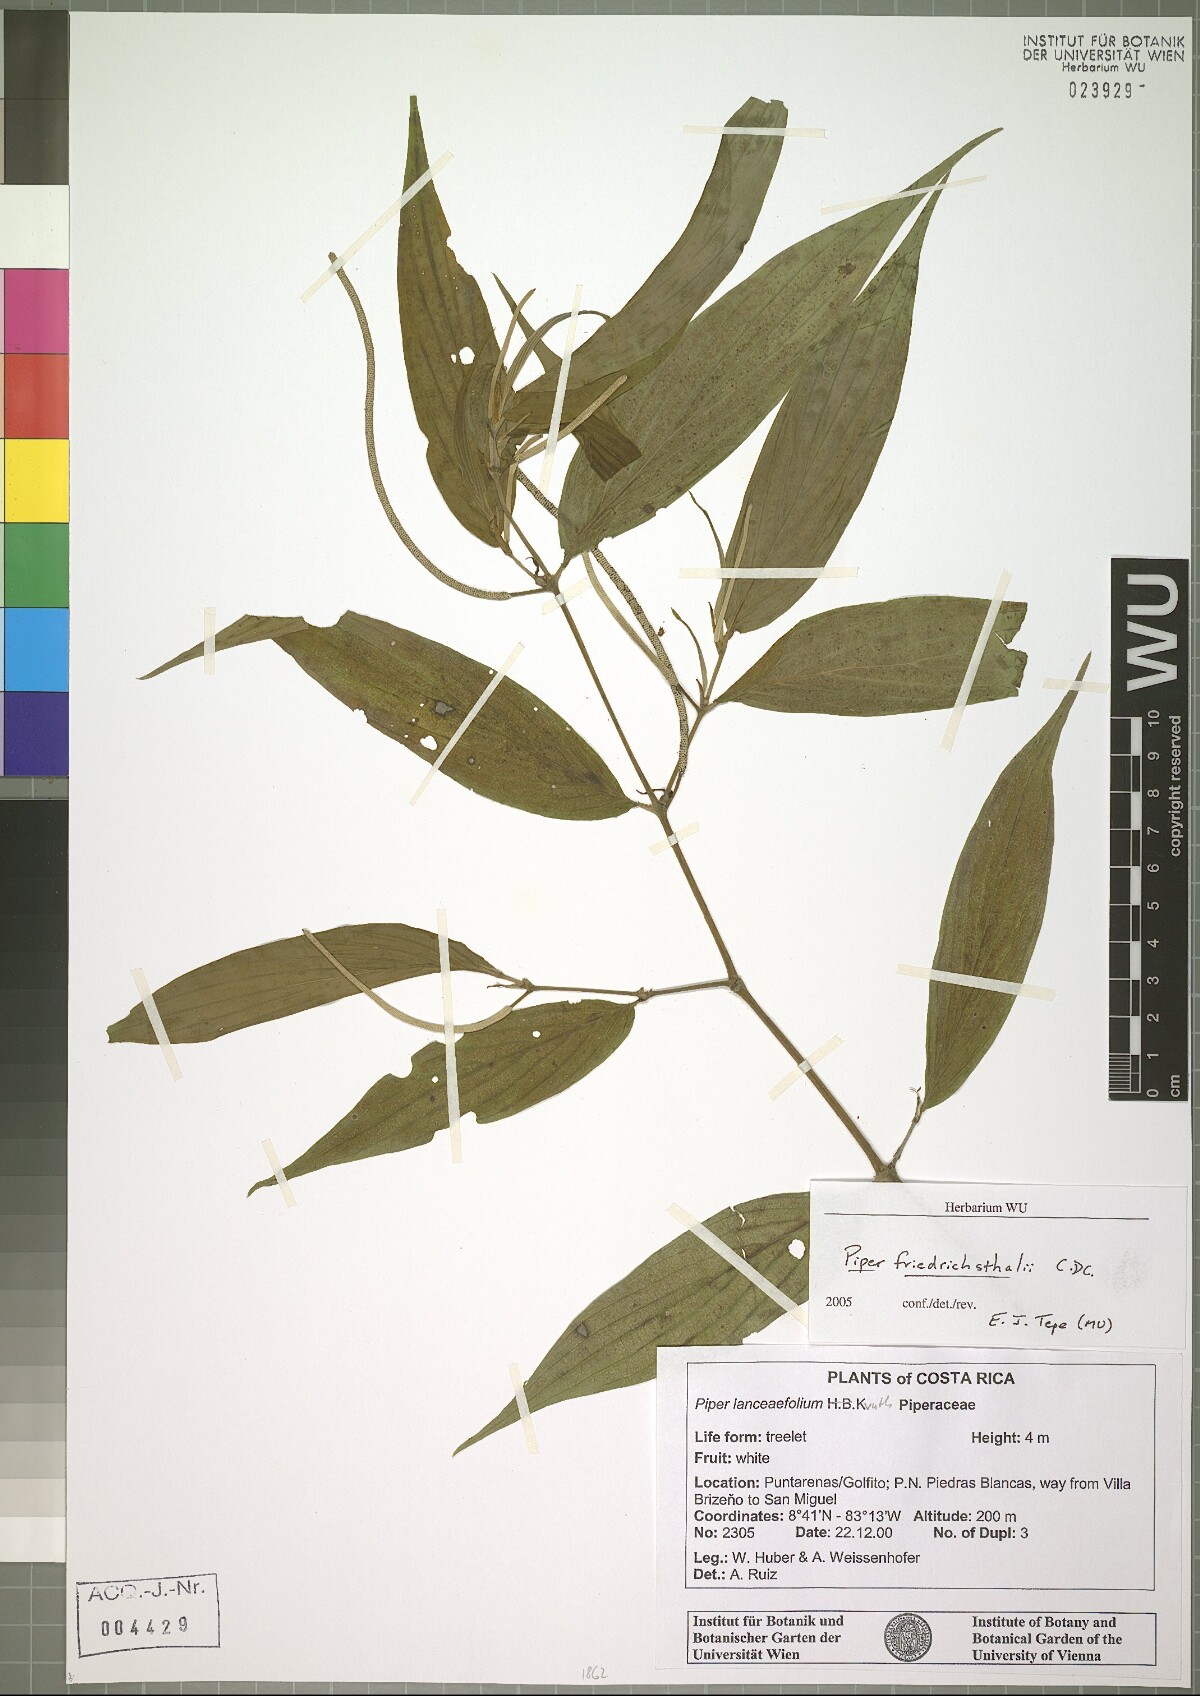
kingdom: Plantae
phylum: Tracheophyta
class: Magnoliopsida
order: Piperales
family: Piperaceae
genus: Piper
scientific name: Piper friedrichsthalii
